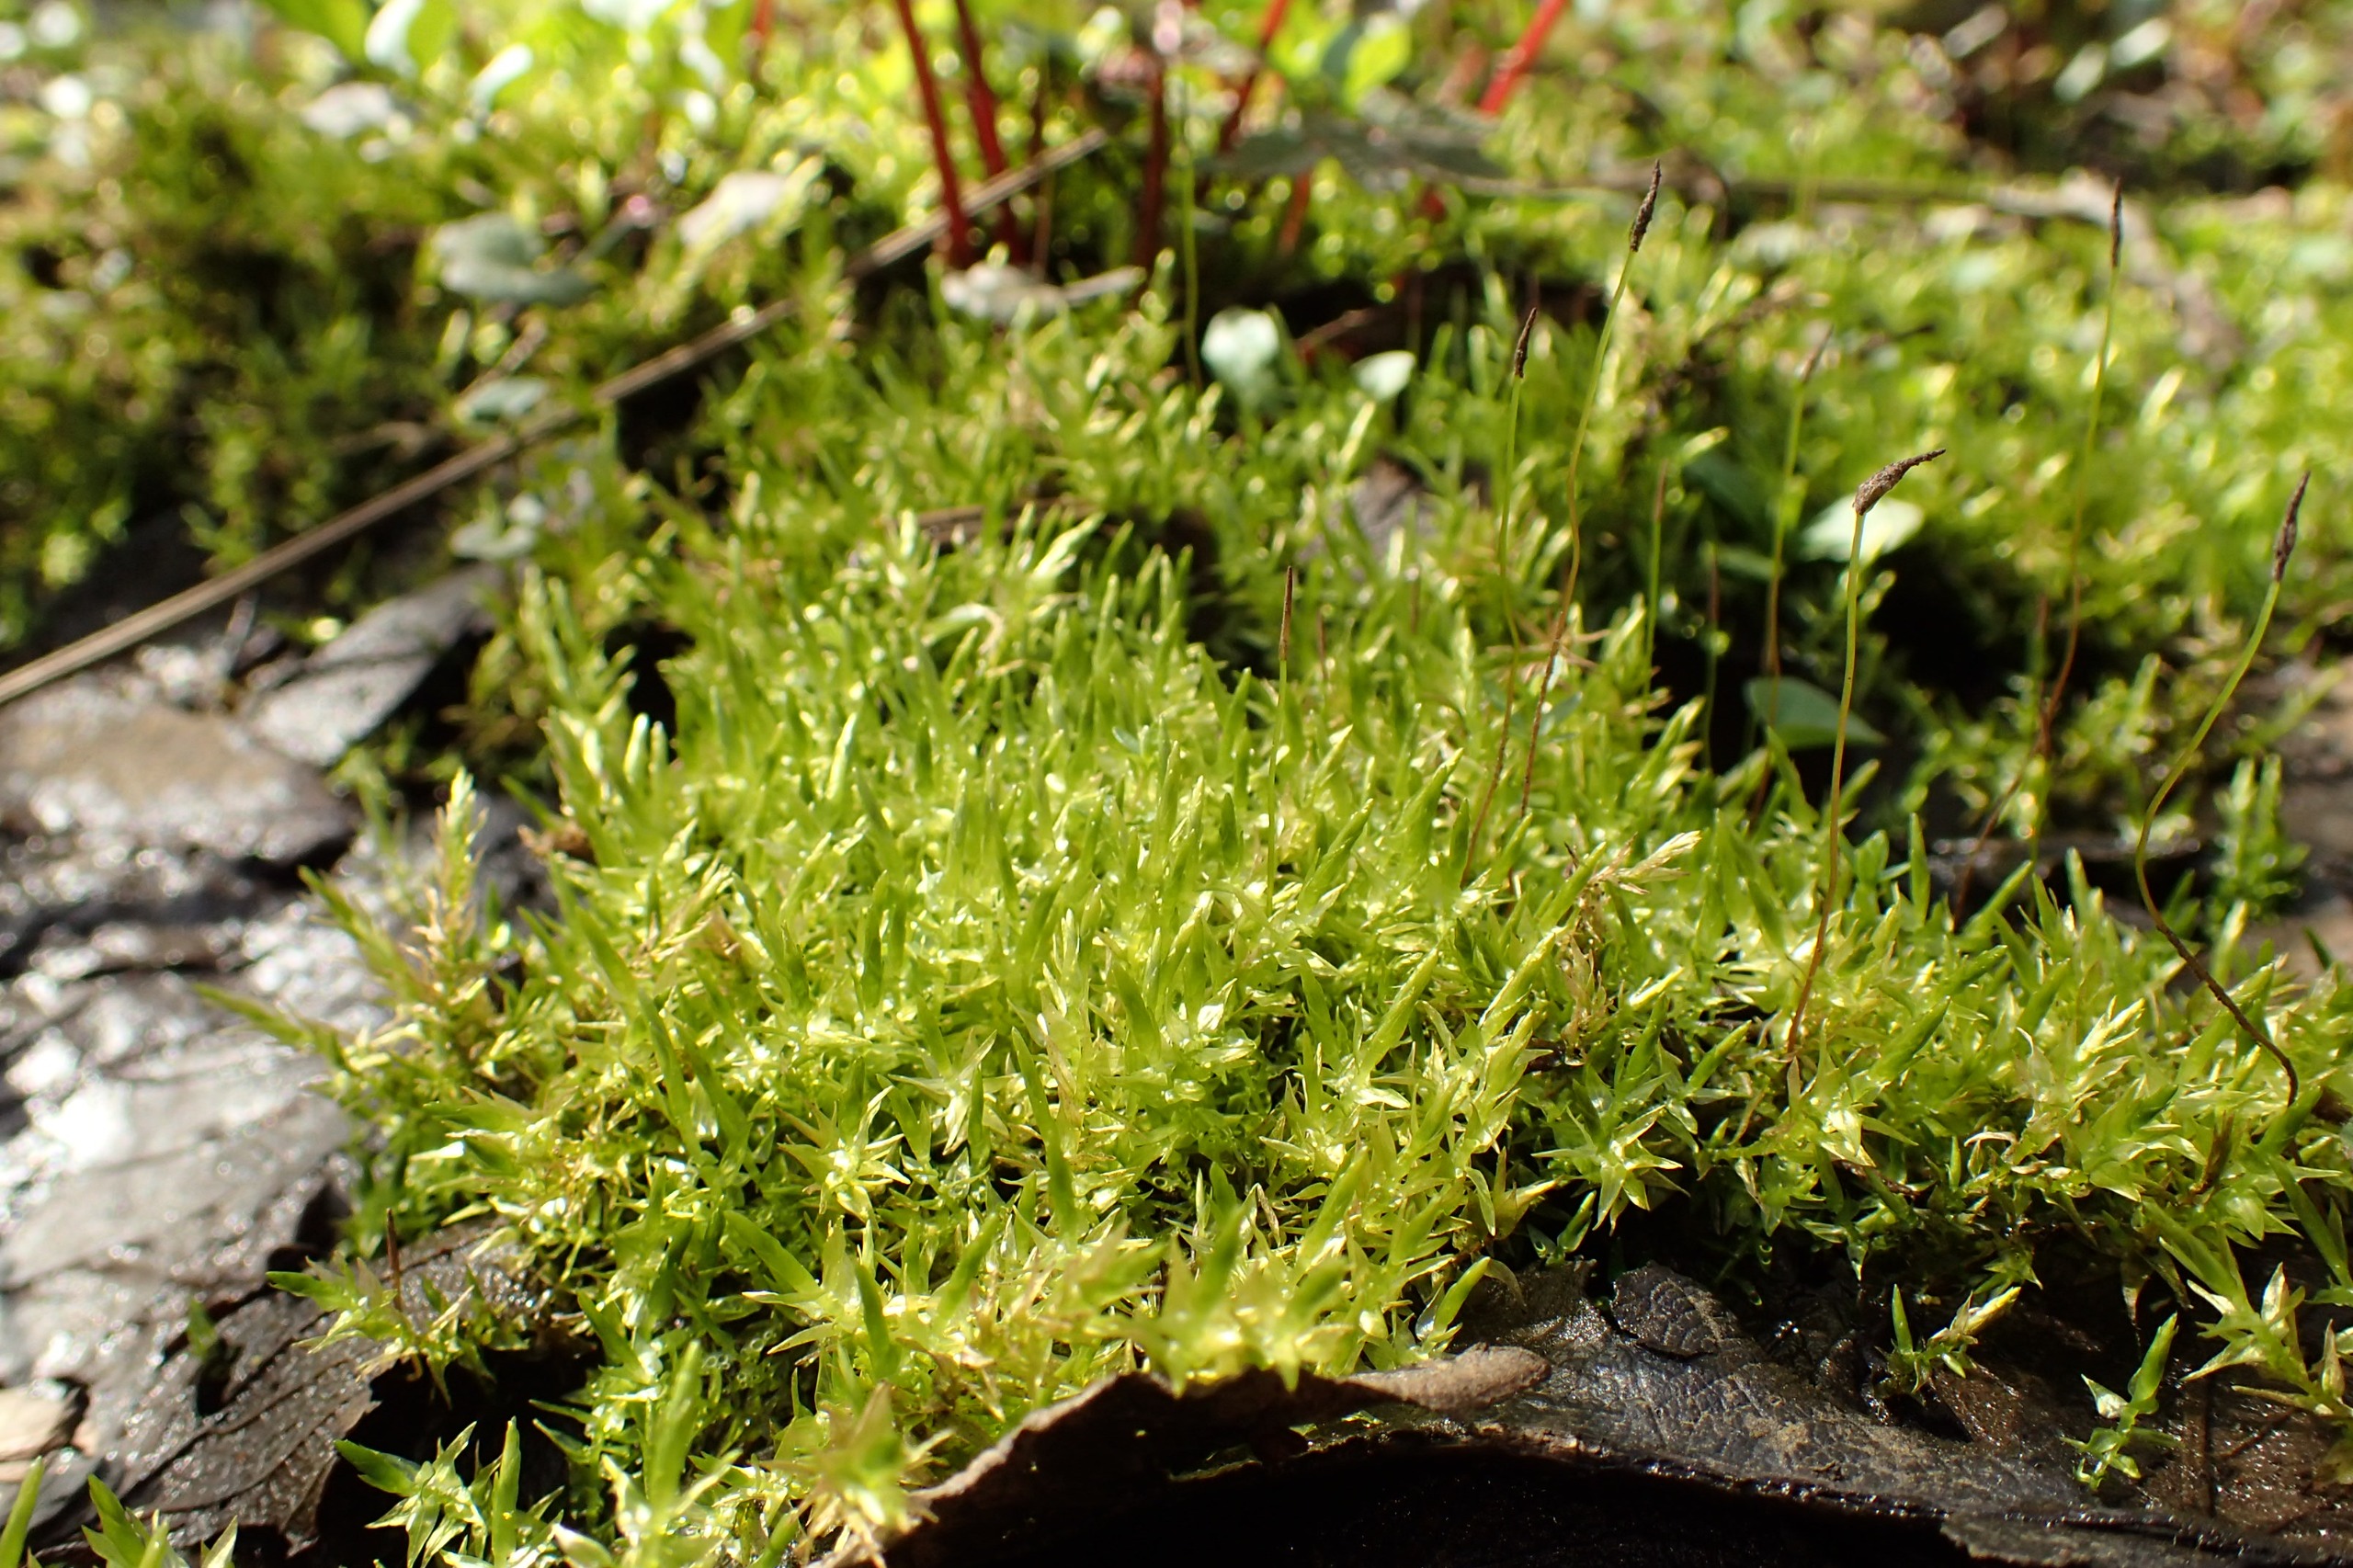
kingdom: Plantae
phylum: Bryophyta
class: Bryopsida
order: Hypnales
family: Calliergonaceae
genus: Calliergon
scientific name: Calliergon cordifolium
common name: Almindelig skebladsmos
